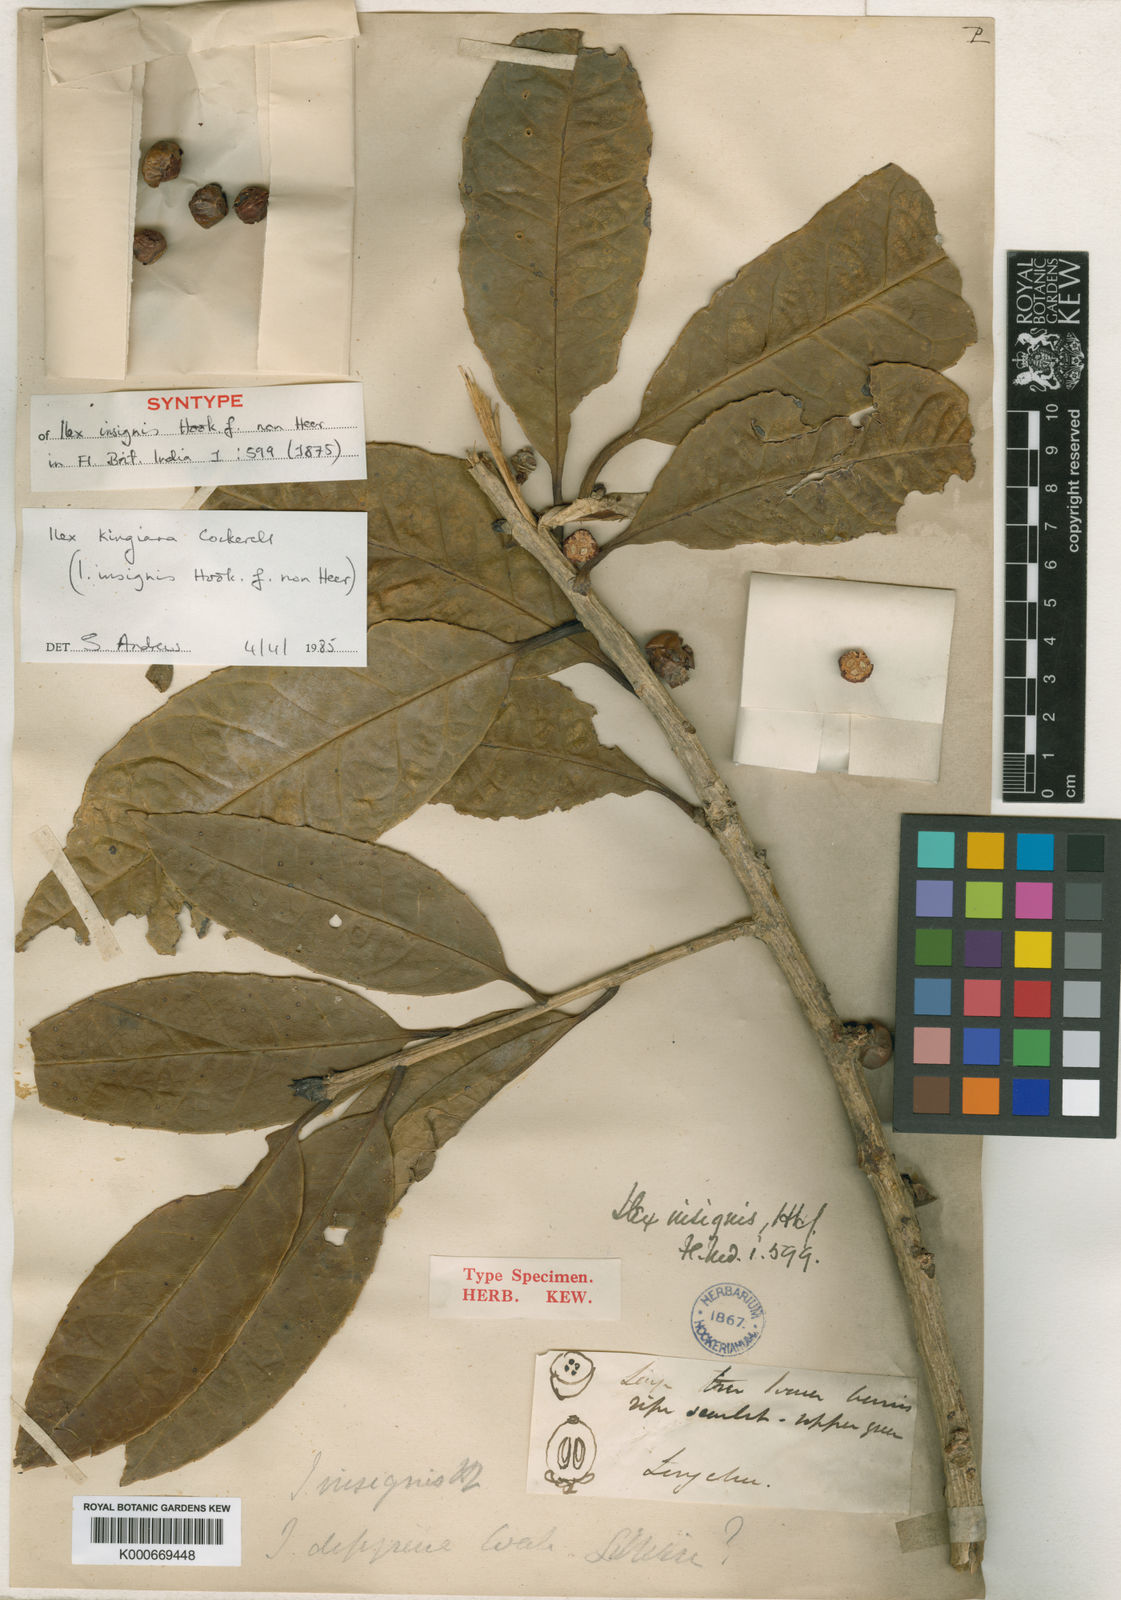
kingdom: Plantae
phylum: Tracheophyta
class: Magnoliopsida
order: Aquifoliales
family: Aquifoliaceae
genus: Ilex
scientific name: Ilex kingiana
